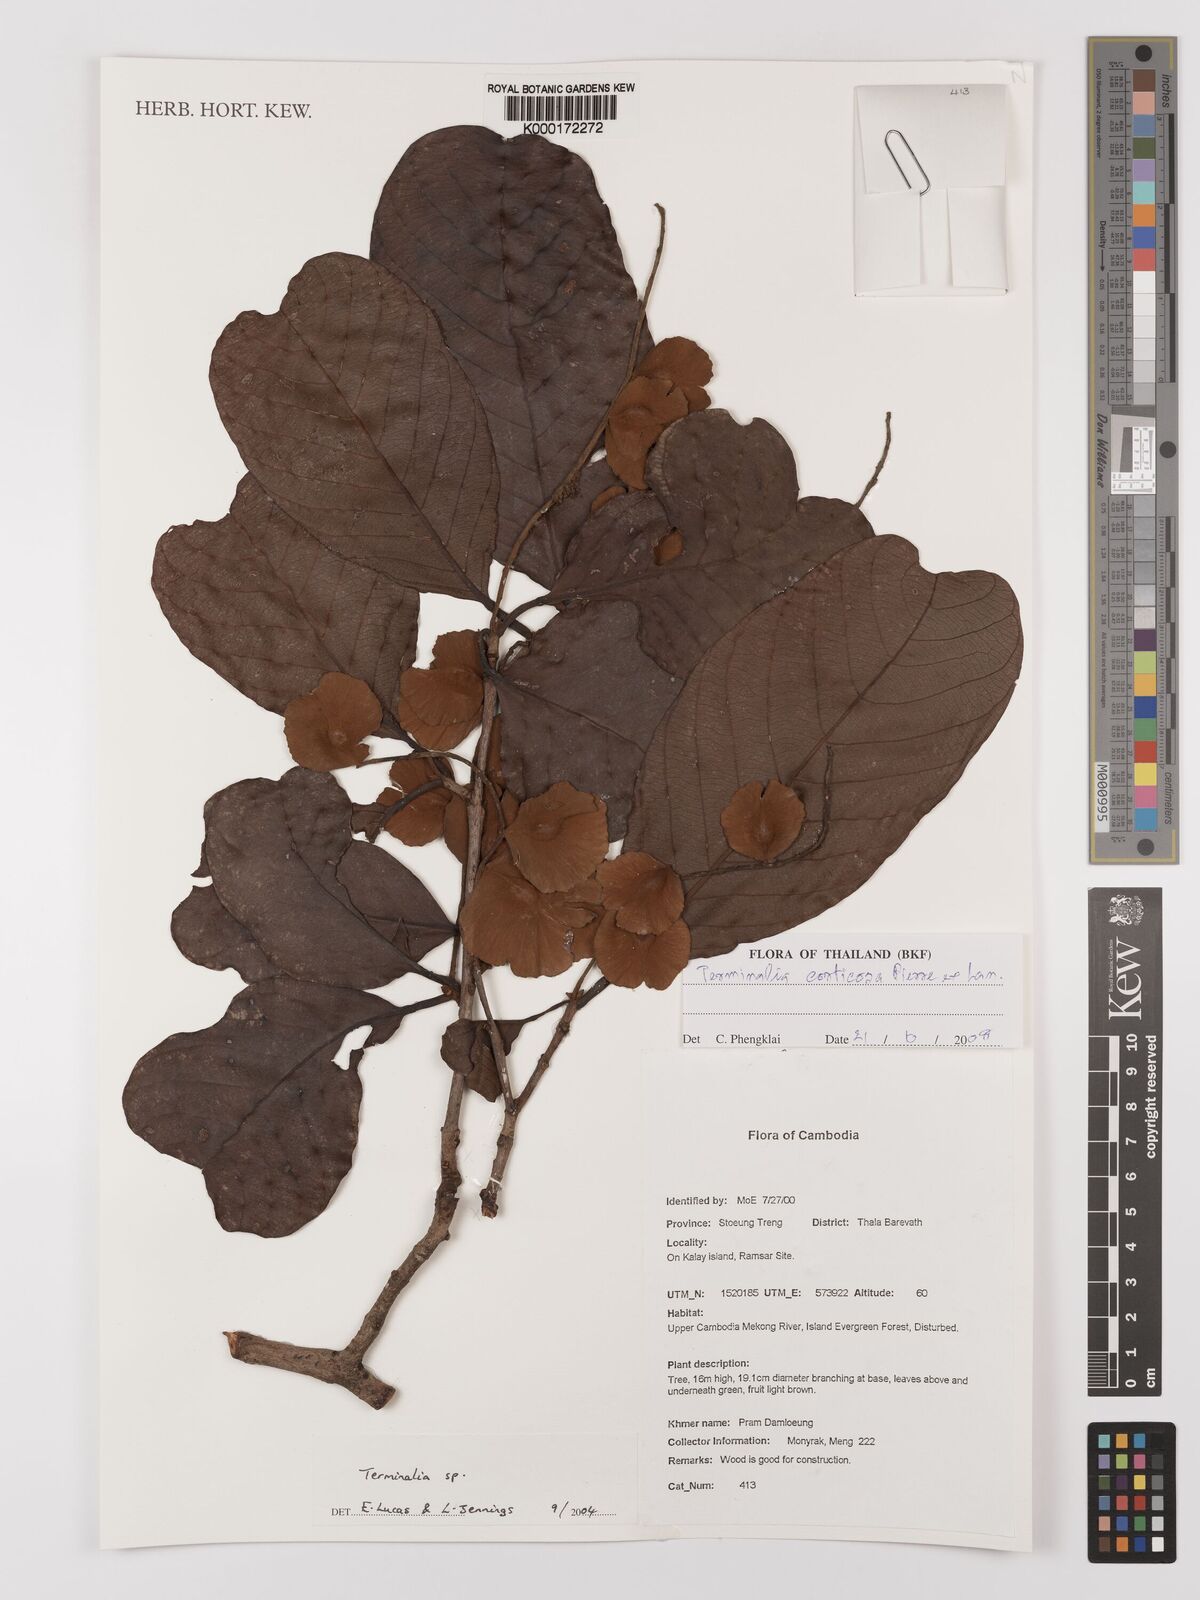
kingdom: Plantae
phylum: Tracheophyta
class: Magnoliopsida
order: Myrtales
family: Combretaceae
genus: Terminalia
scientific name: Terminalia
